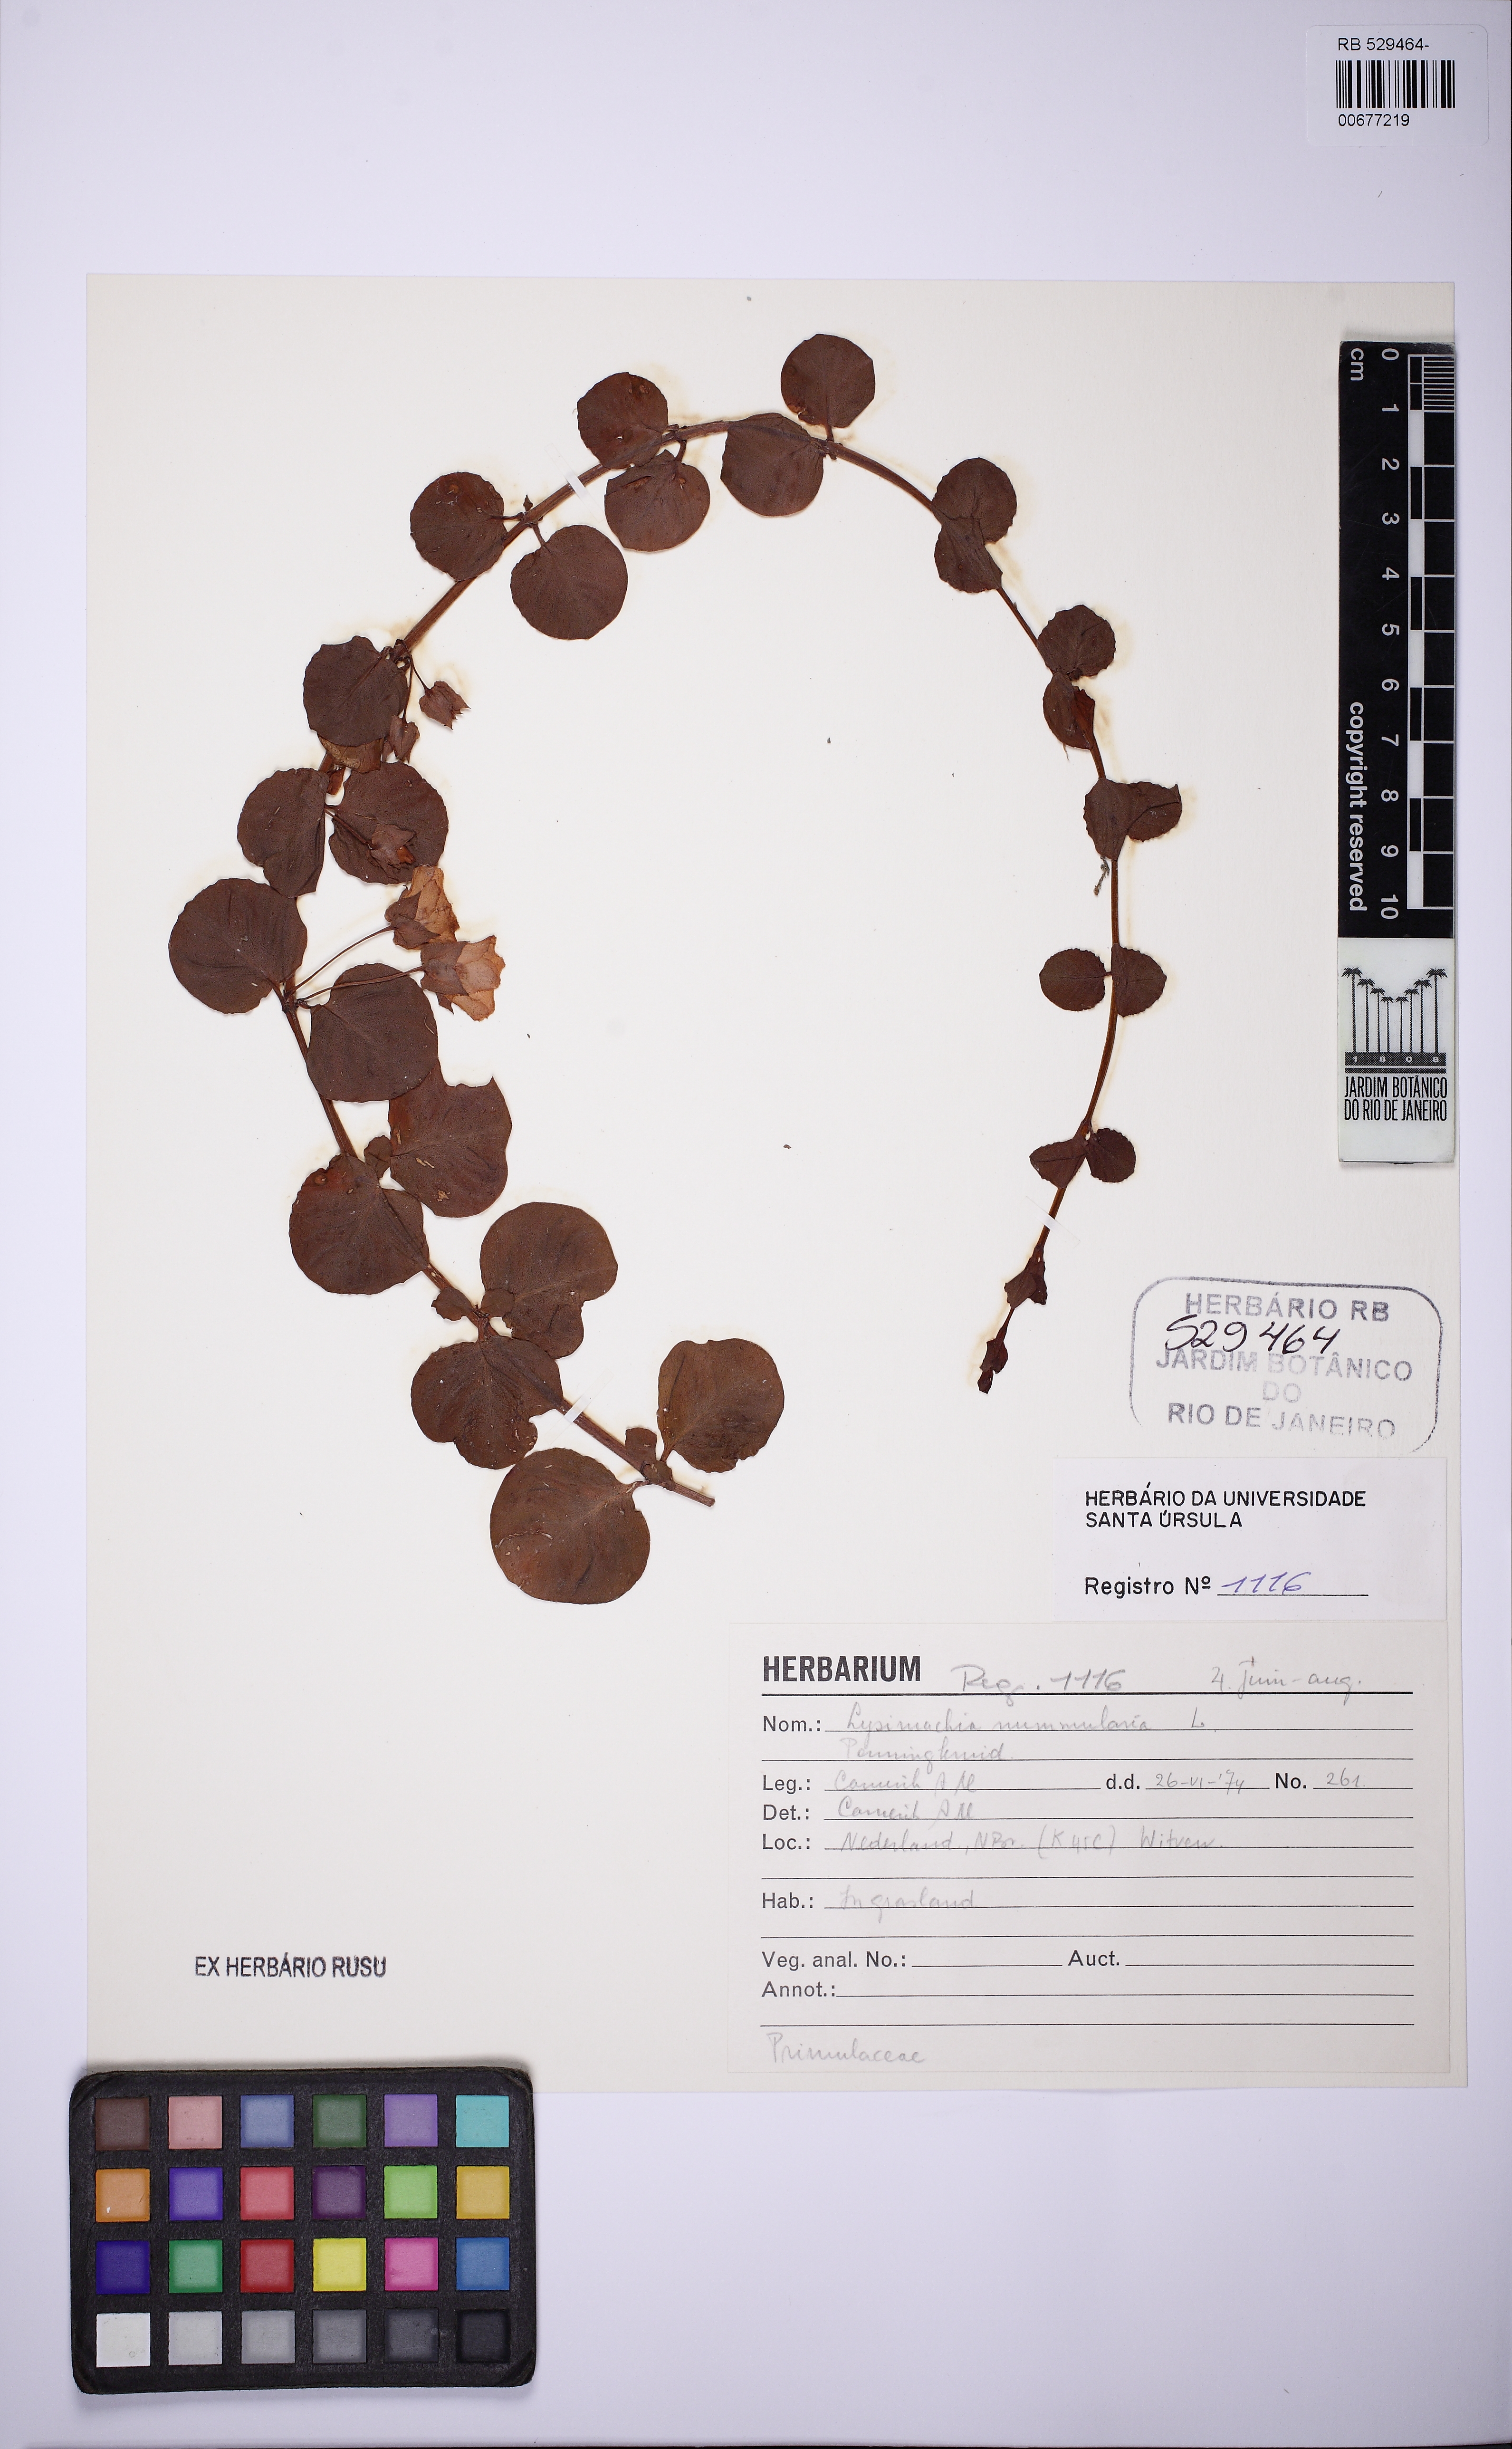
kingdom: Plantae
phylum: Tracheophyta
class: Magnoliopsida
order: Ericales
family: Primulaceae
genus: Lysimachia
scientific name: Lysimachia nummularia
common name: Moneywort
